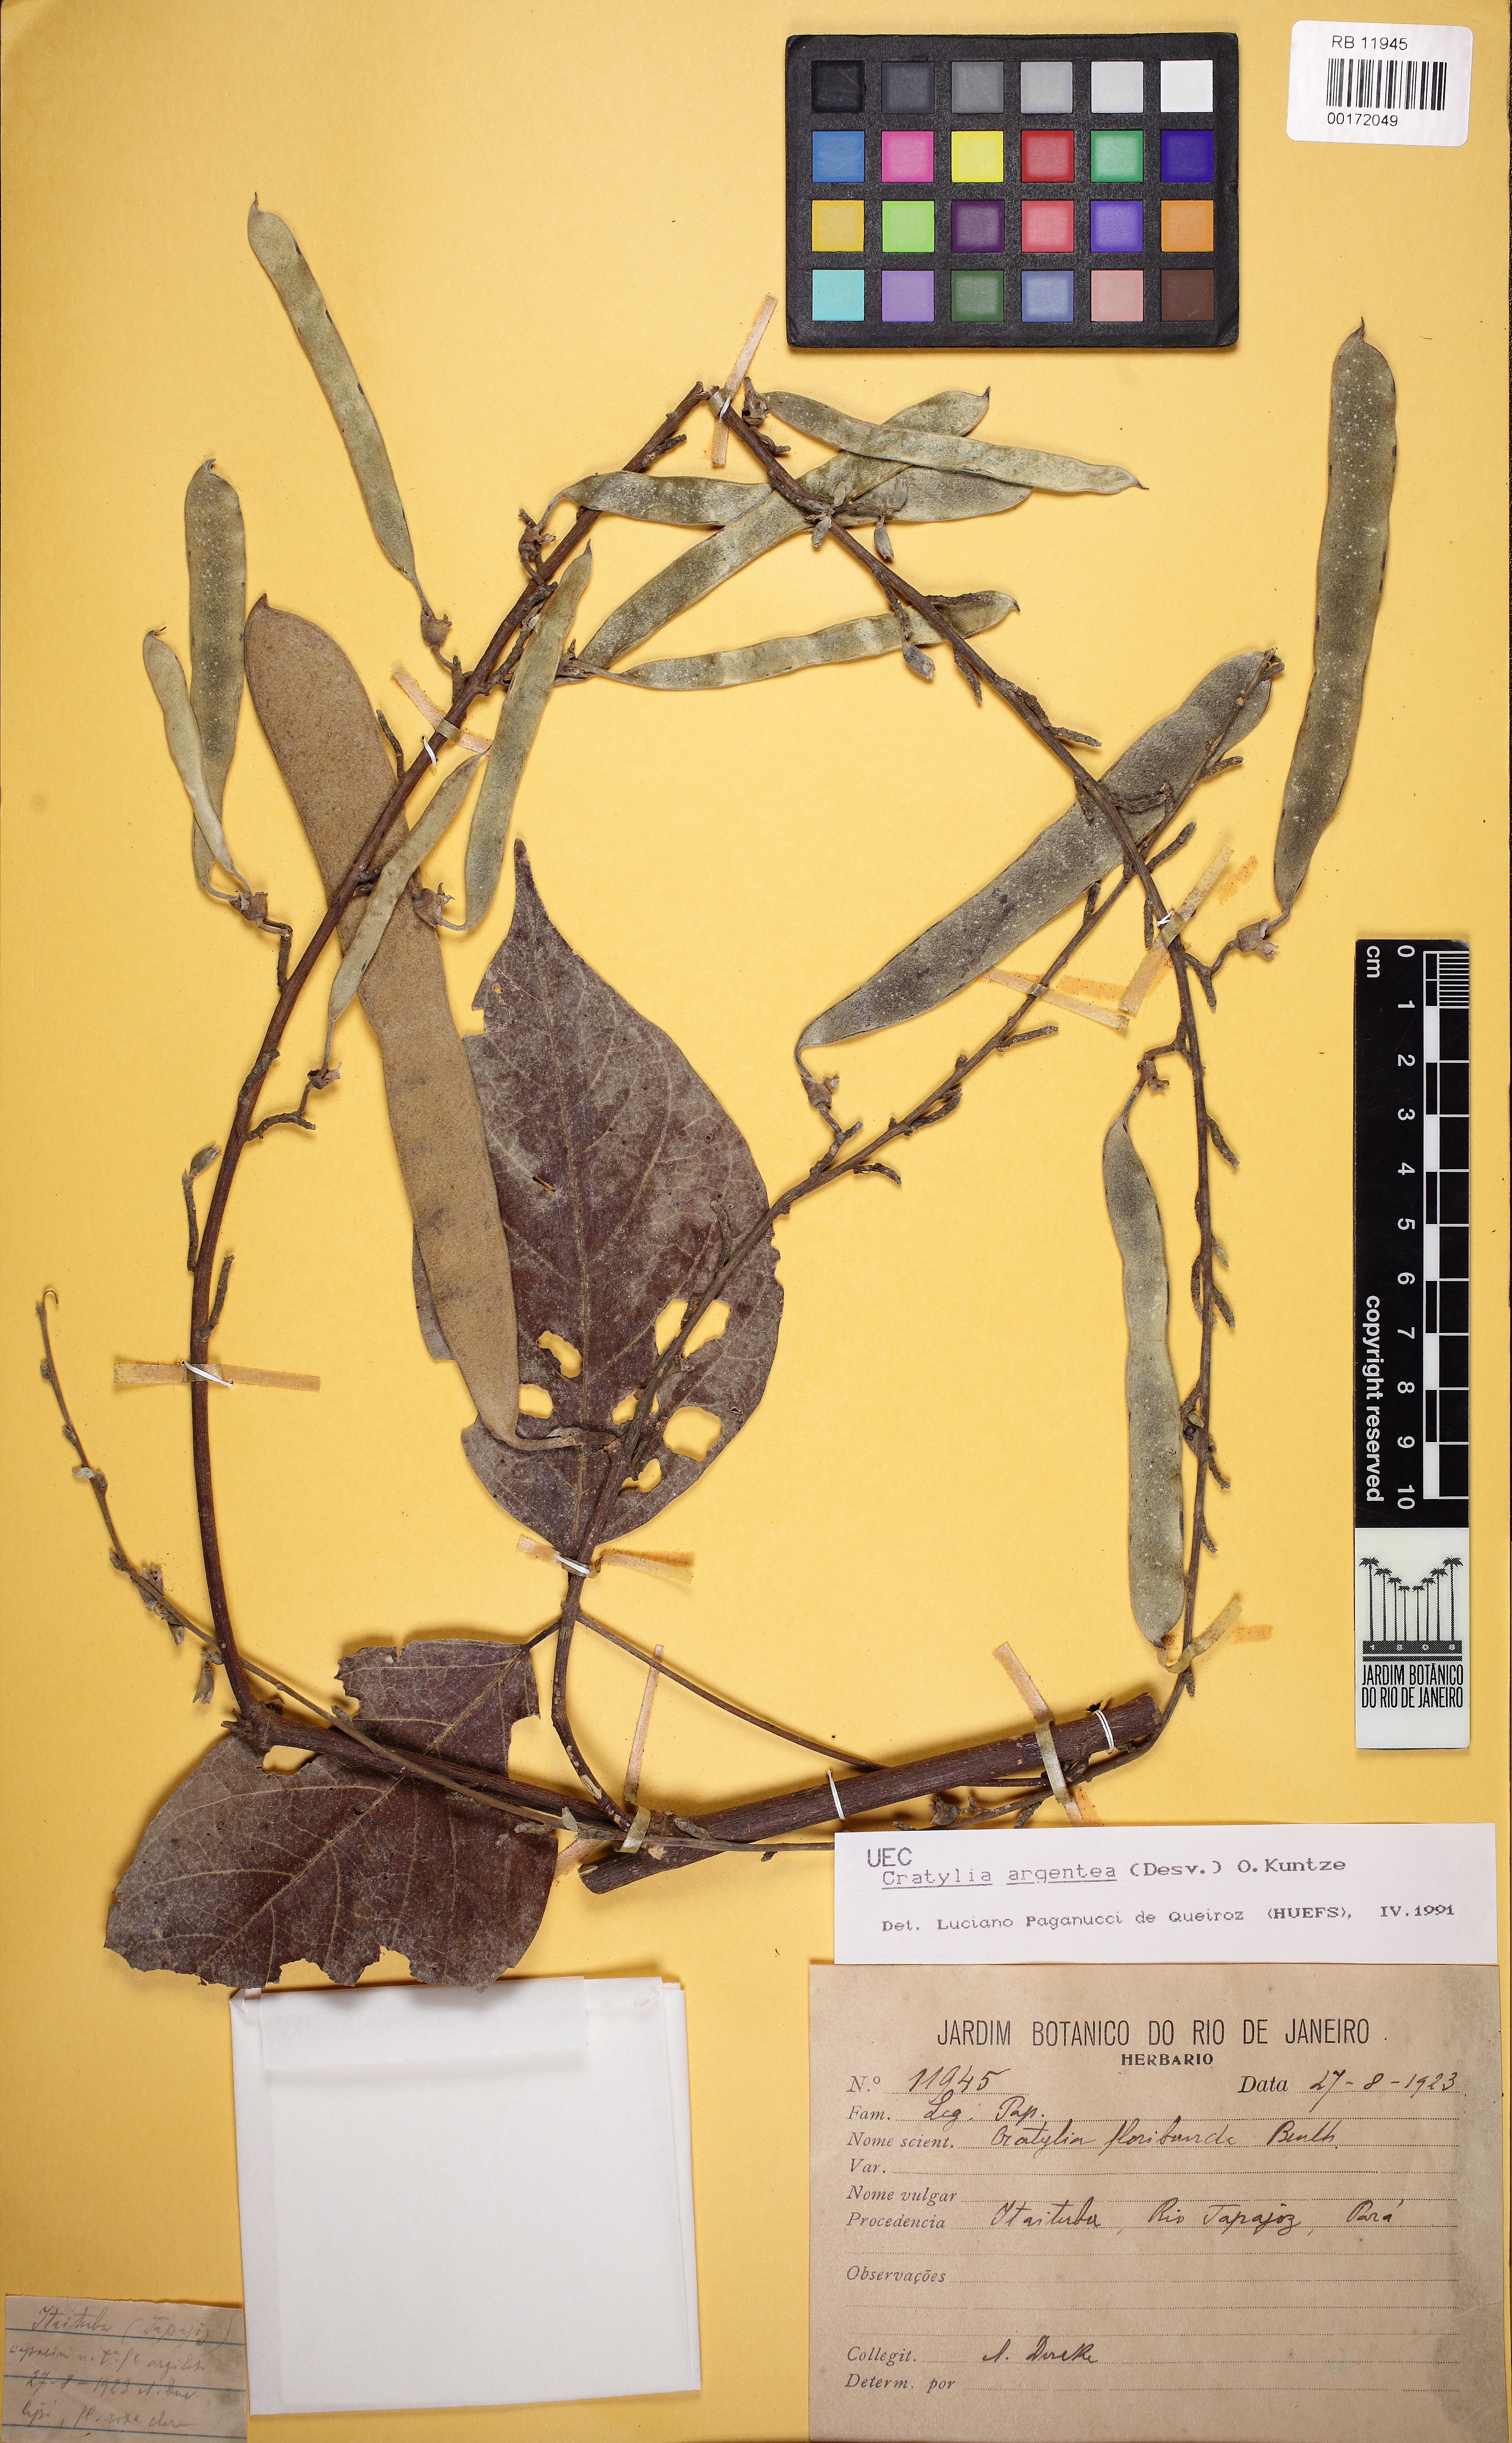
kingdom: Plantae
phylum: Tracheophyta
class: Magnoliopsida
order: Fabales
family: Fabaceae
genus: Cratylia
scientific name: Cratylia argentea
